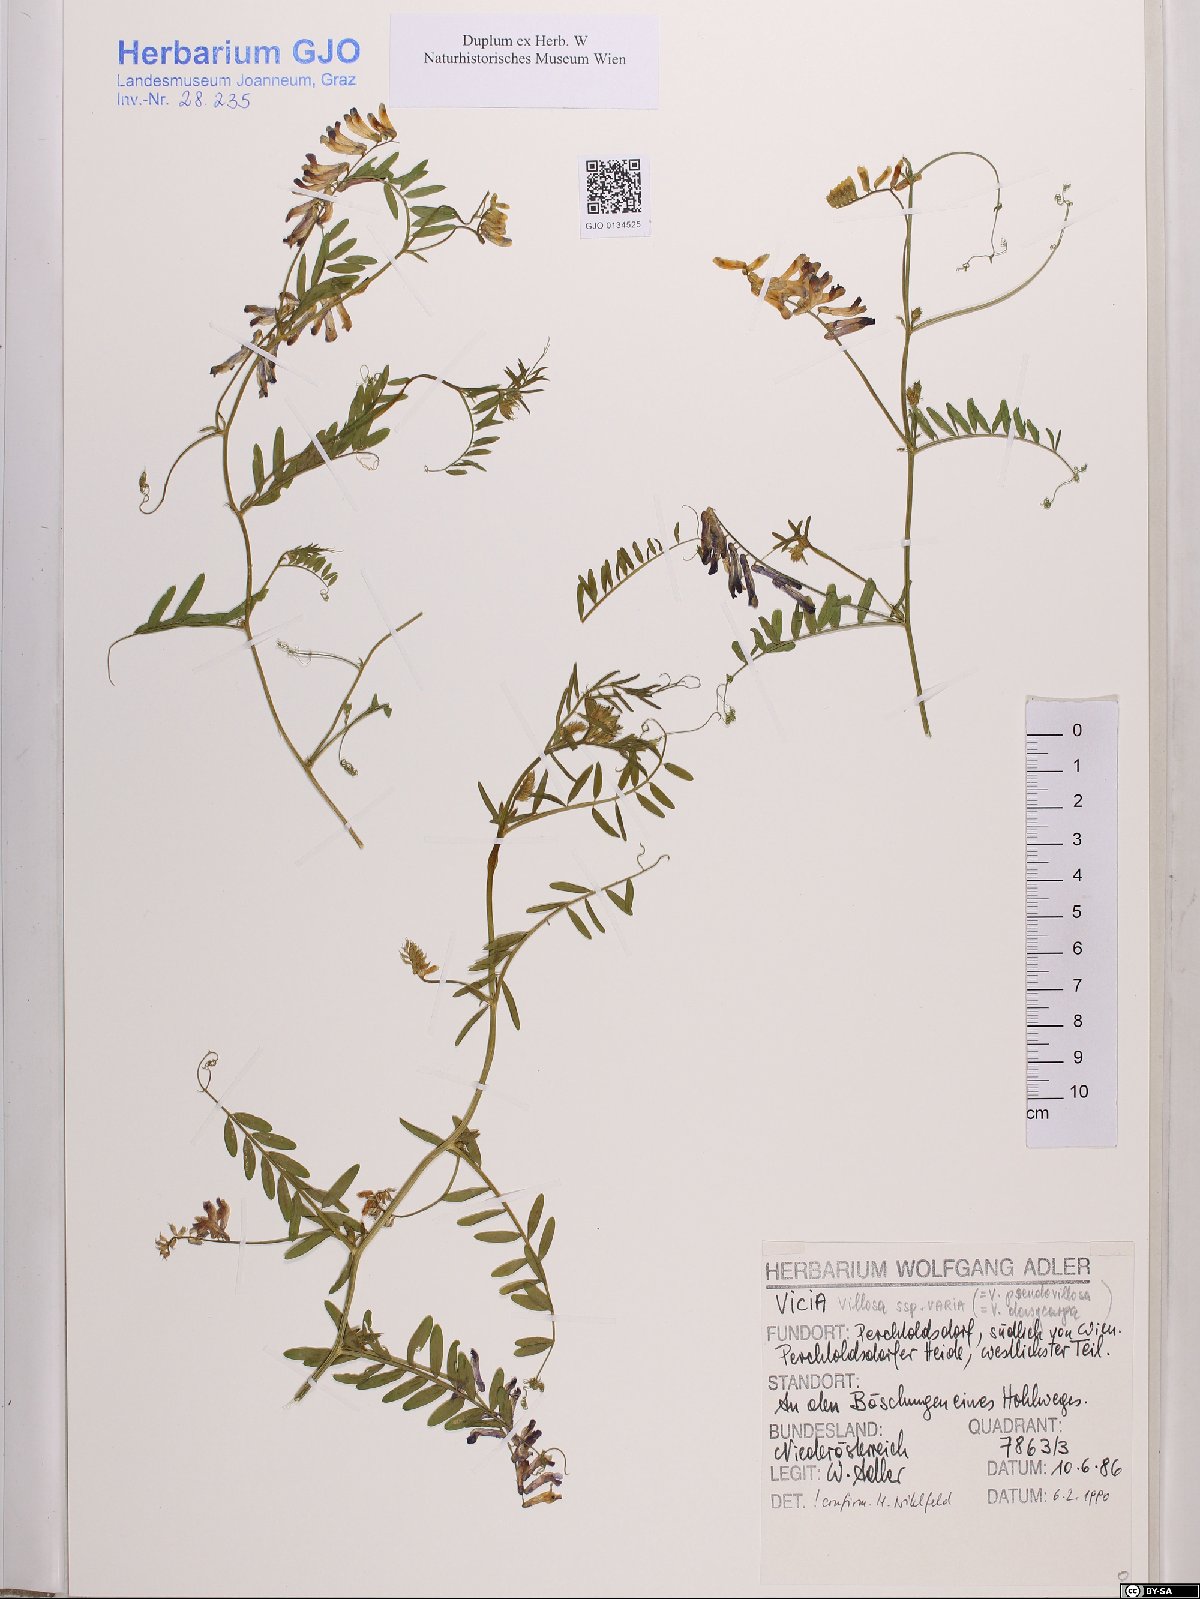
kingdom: Plantae
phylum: Tracheophyta
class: Magnoliopsida
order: Fabales
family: Fabaceae
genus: Vicia
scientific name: Vicia villosa
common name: Fodder vetch
